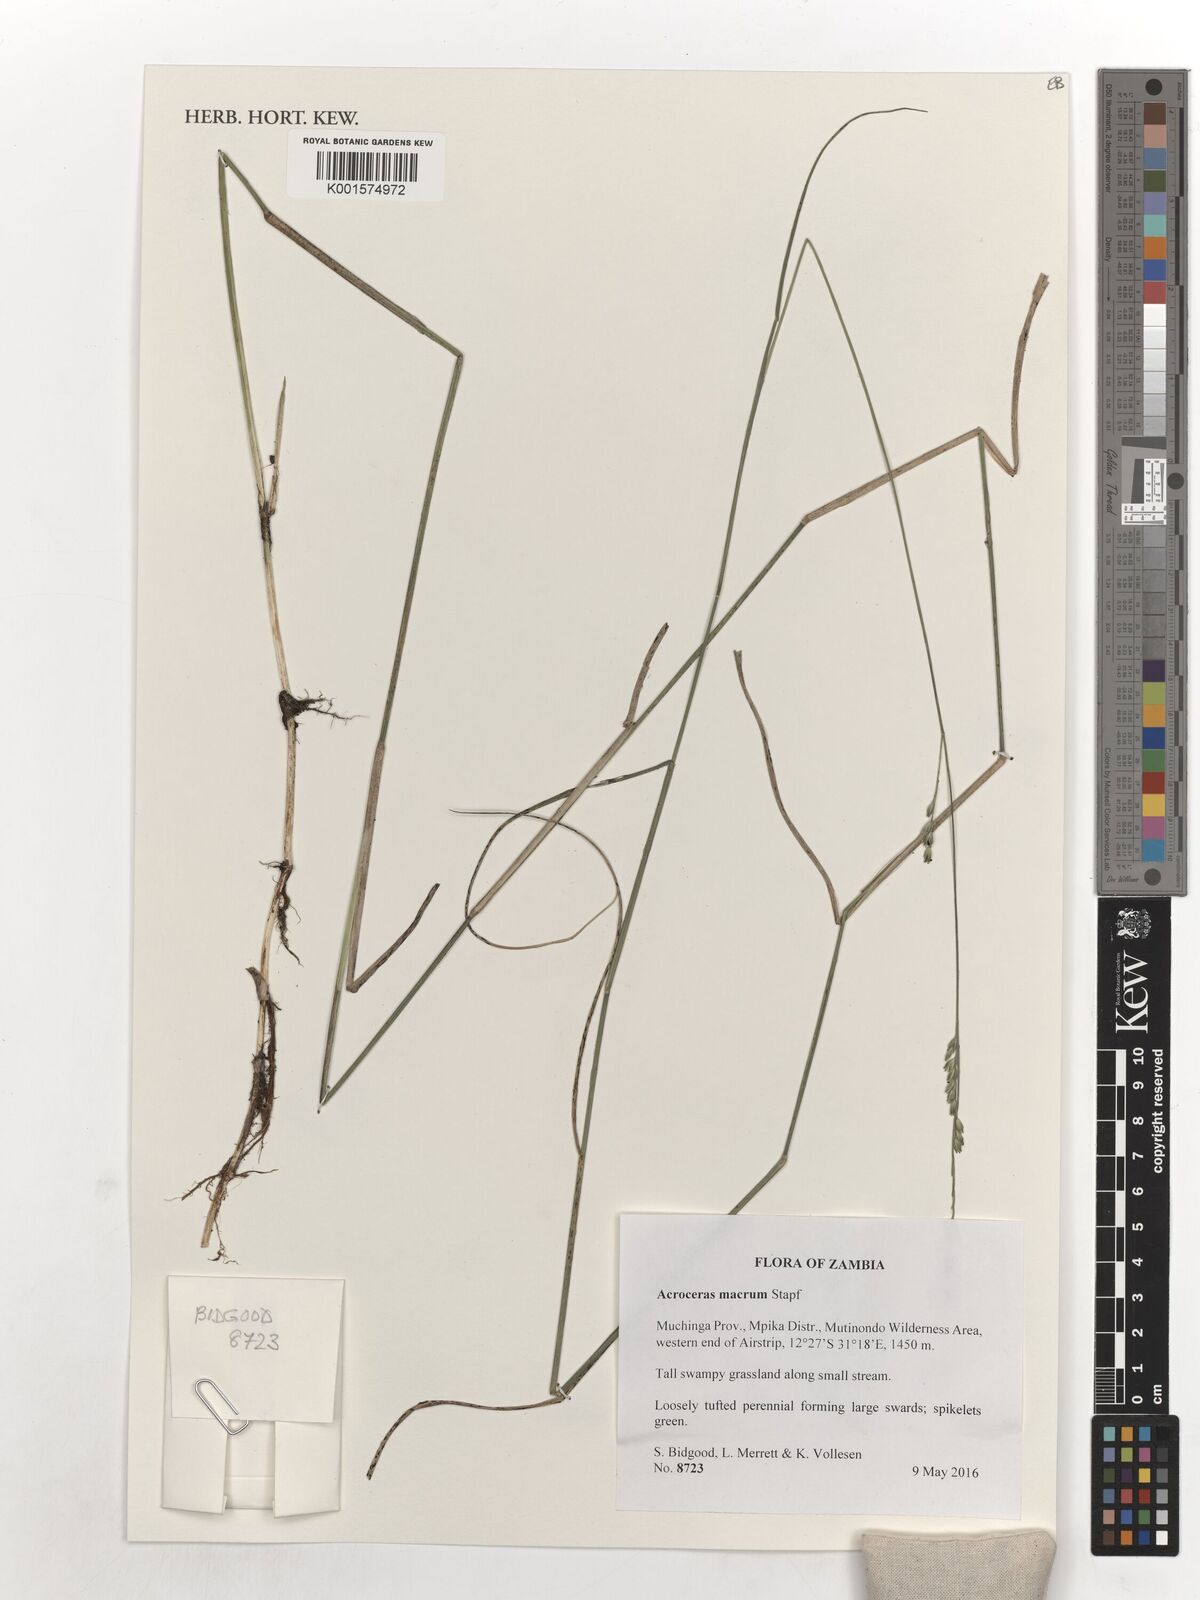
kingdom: Plantae
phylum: Tracheophyta
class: Liliopsida
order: Poales
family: Poaceae
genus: Acroceras
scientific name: Acroceras macrum
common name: Nyl grass
